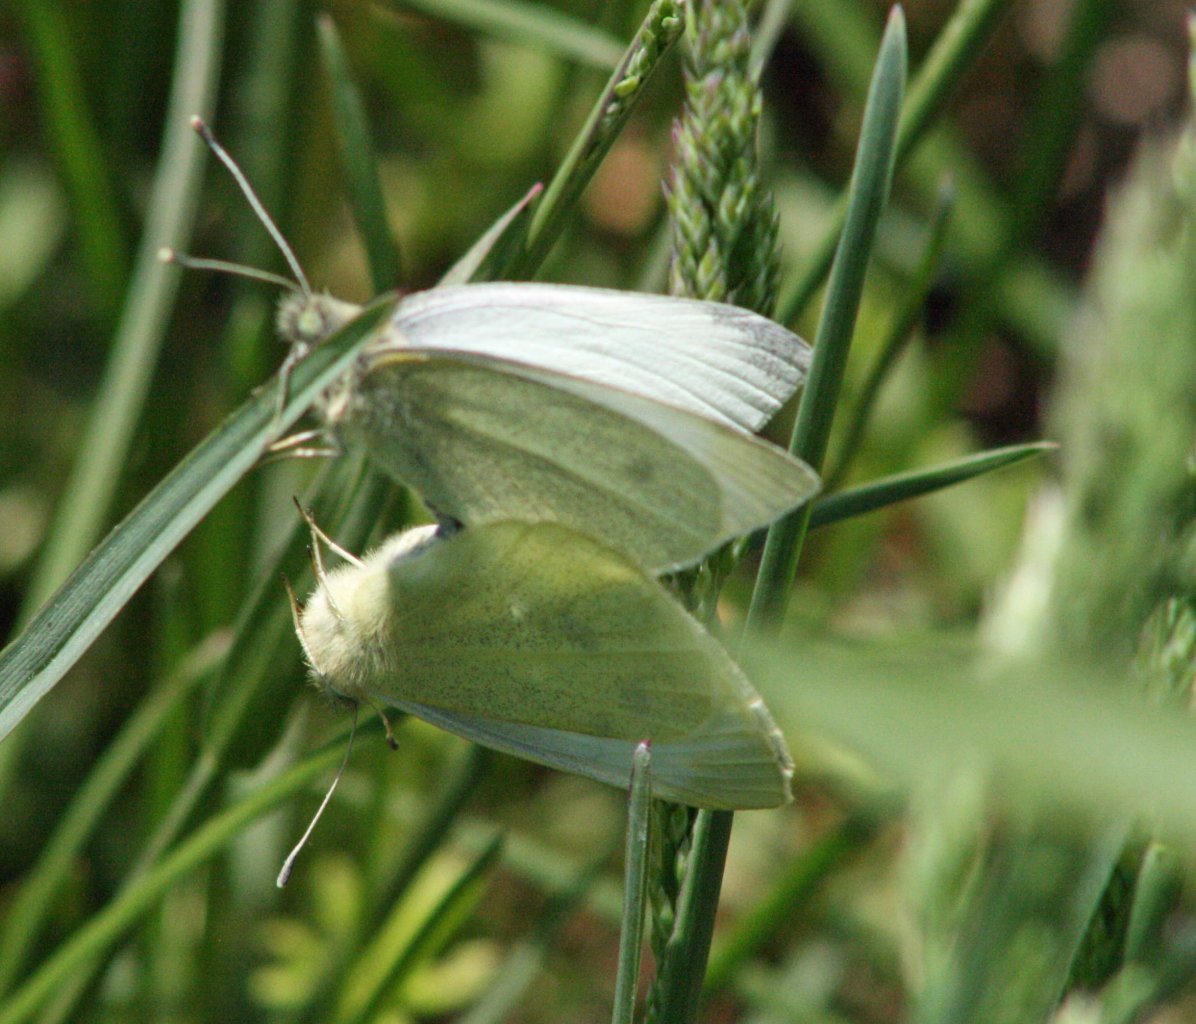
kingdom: Animalia
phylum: Arthropoda
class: Insecta
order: Lepidoptera
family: Pieridae
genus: Pieris
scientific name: Pieris rapae
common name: Cabbage White
